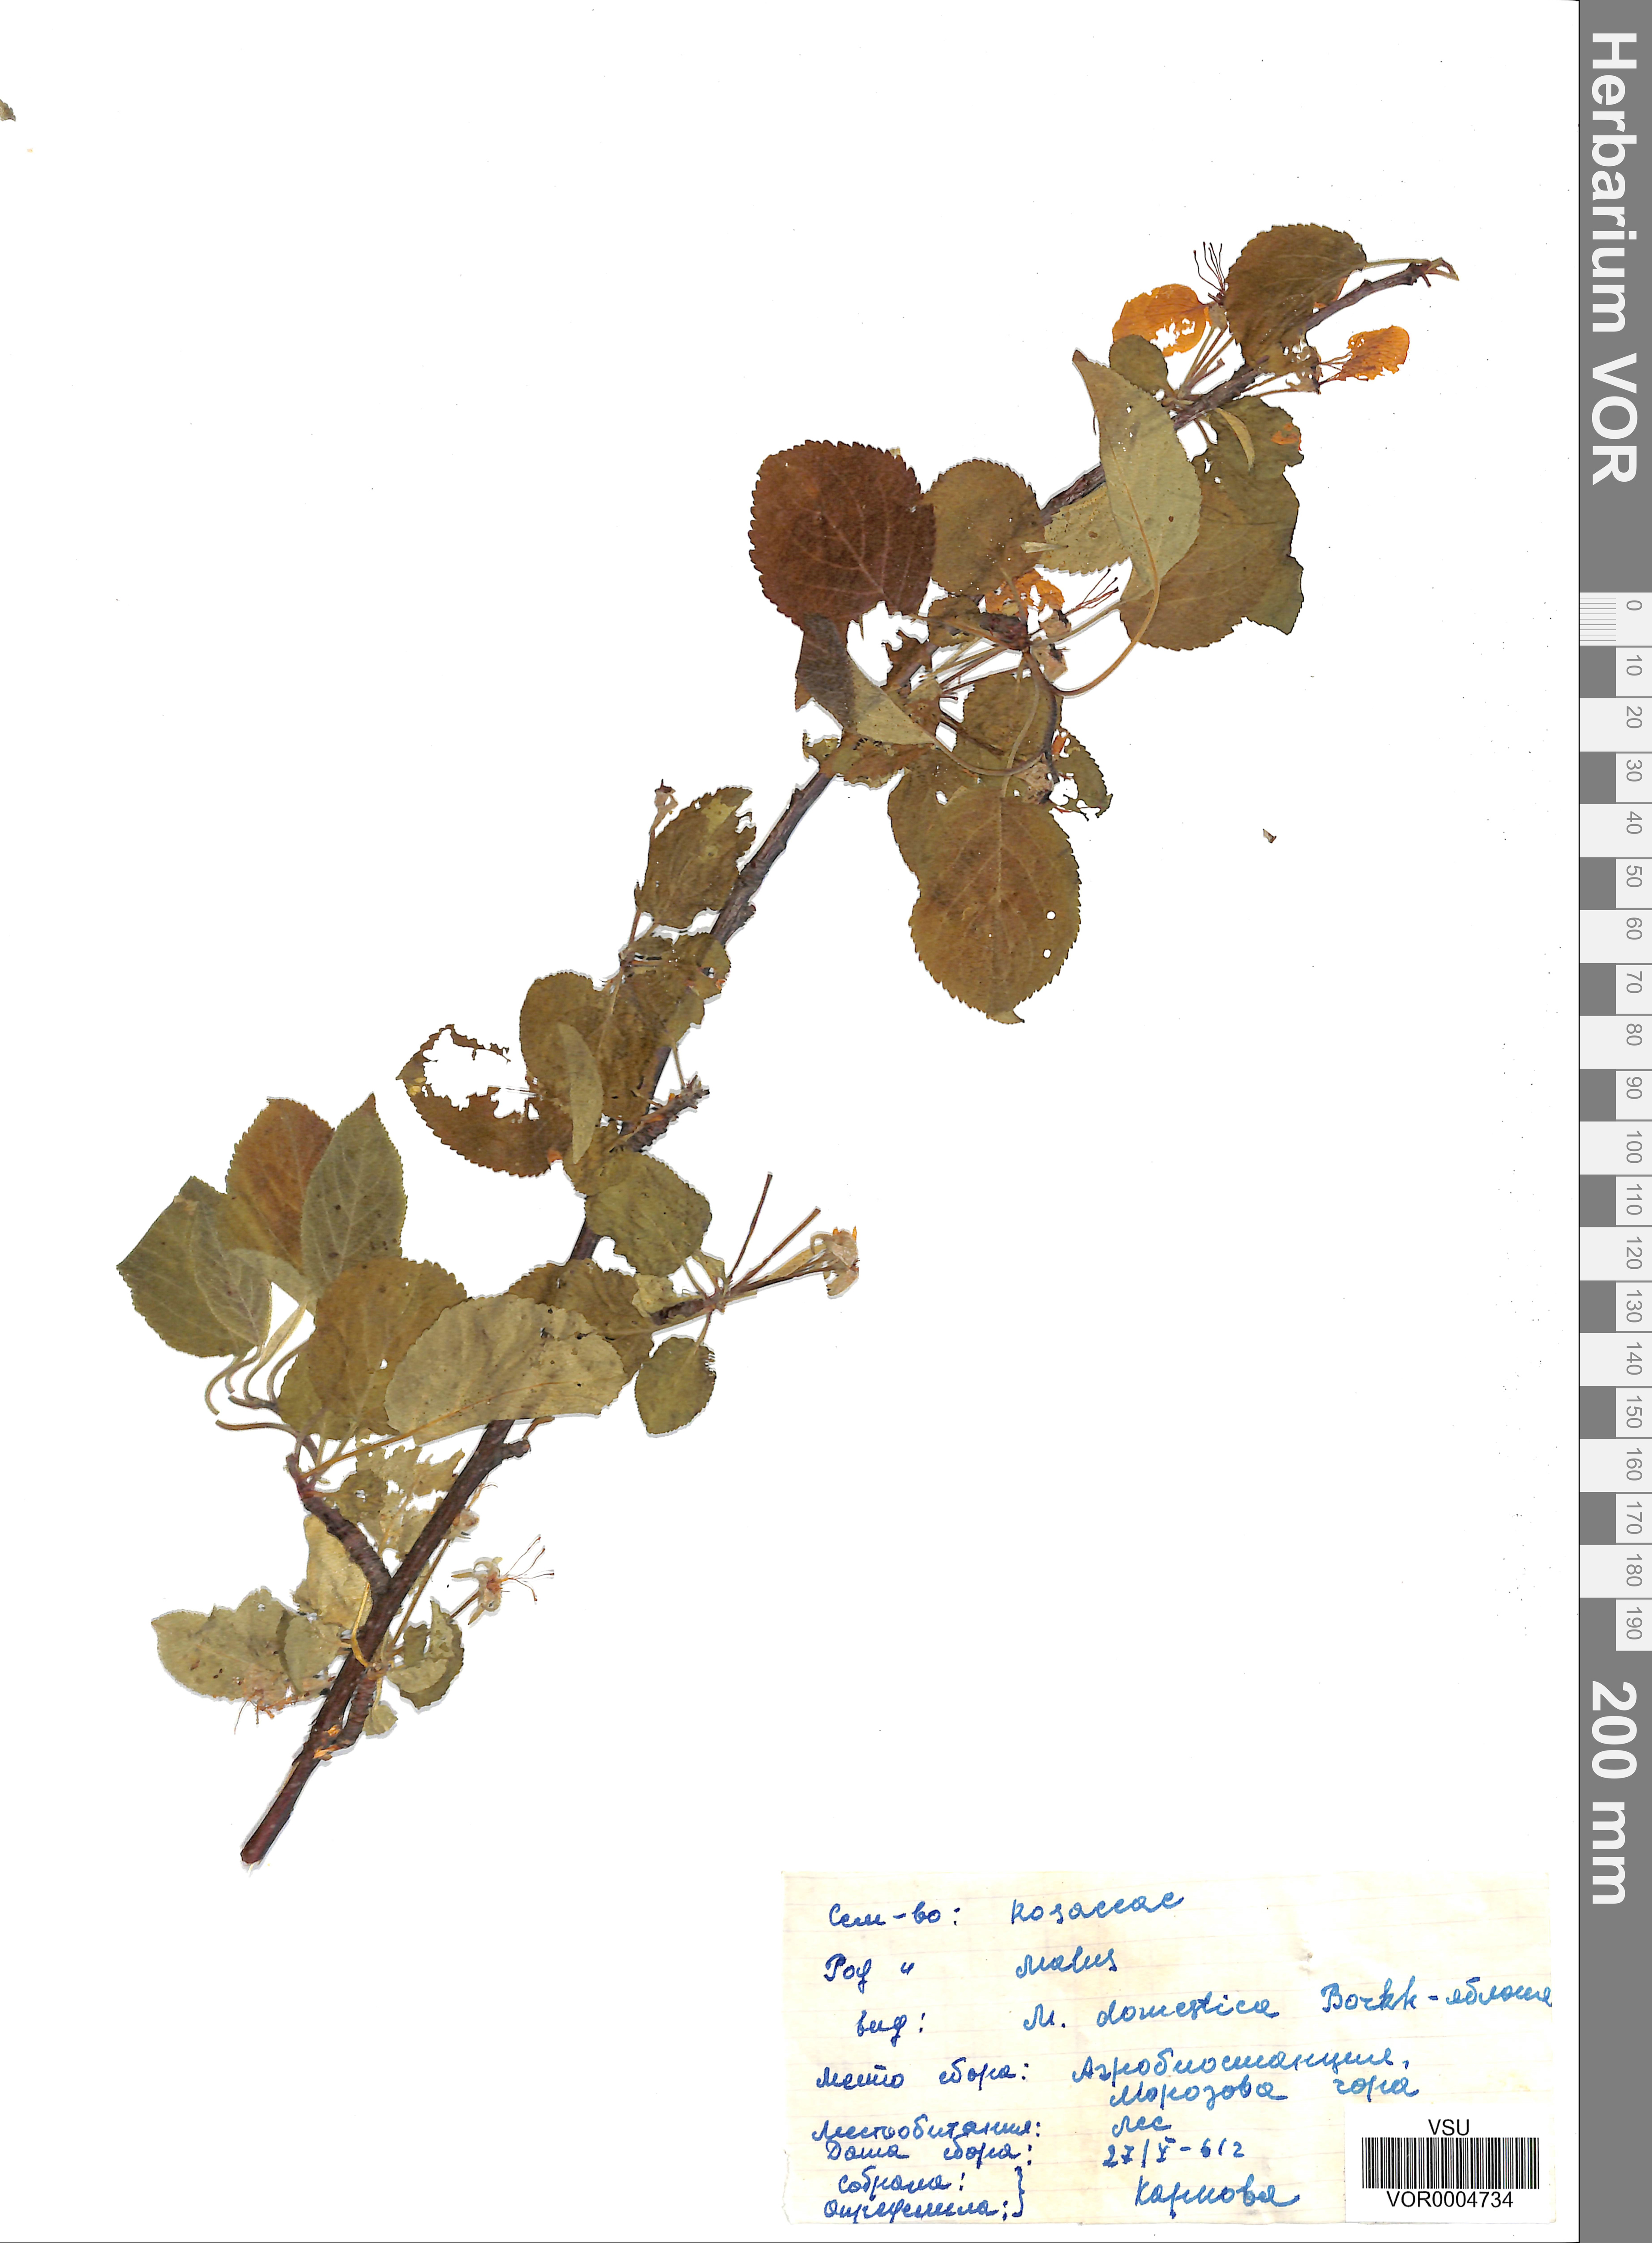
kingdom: Plantae
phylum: Tracheophyta
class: Magnoliopsida
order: Rosales
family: Rosaceae
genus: Malus
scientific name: Malus domestica
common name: Apple
